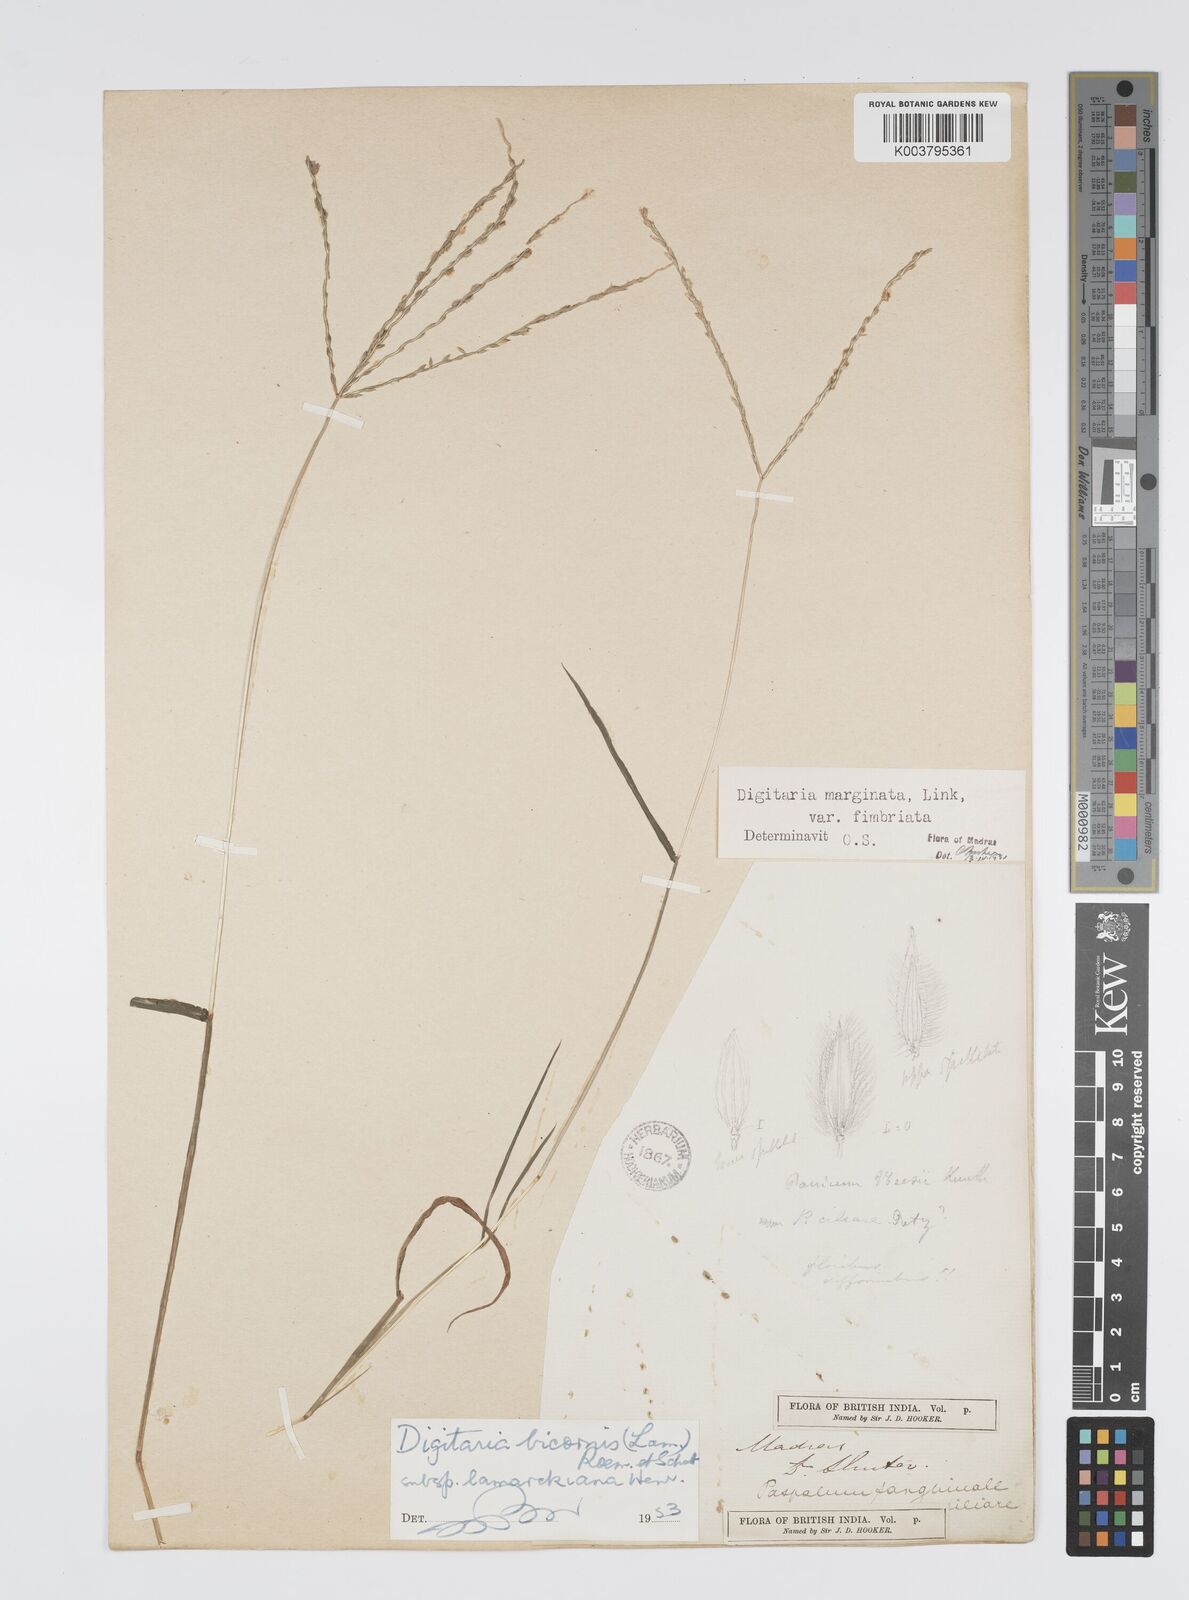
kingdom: Plantae
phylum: Tracheophyta
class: Liliopsida
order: Poales
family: Poaceae
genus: Digitaria
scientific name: Digitaria ciliaris
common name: Tropical finger-grass
